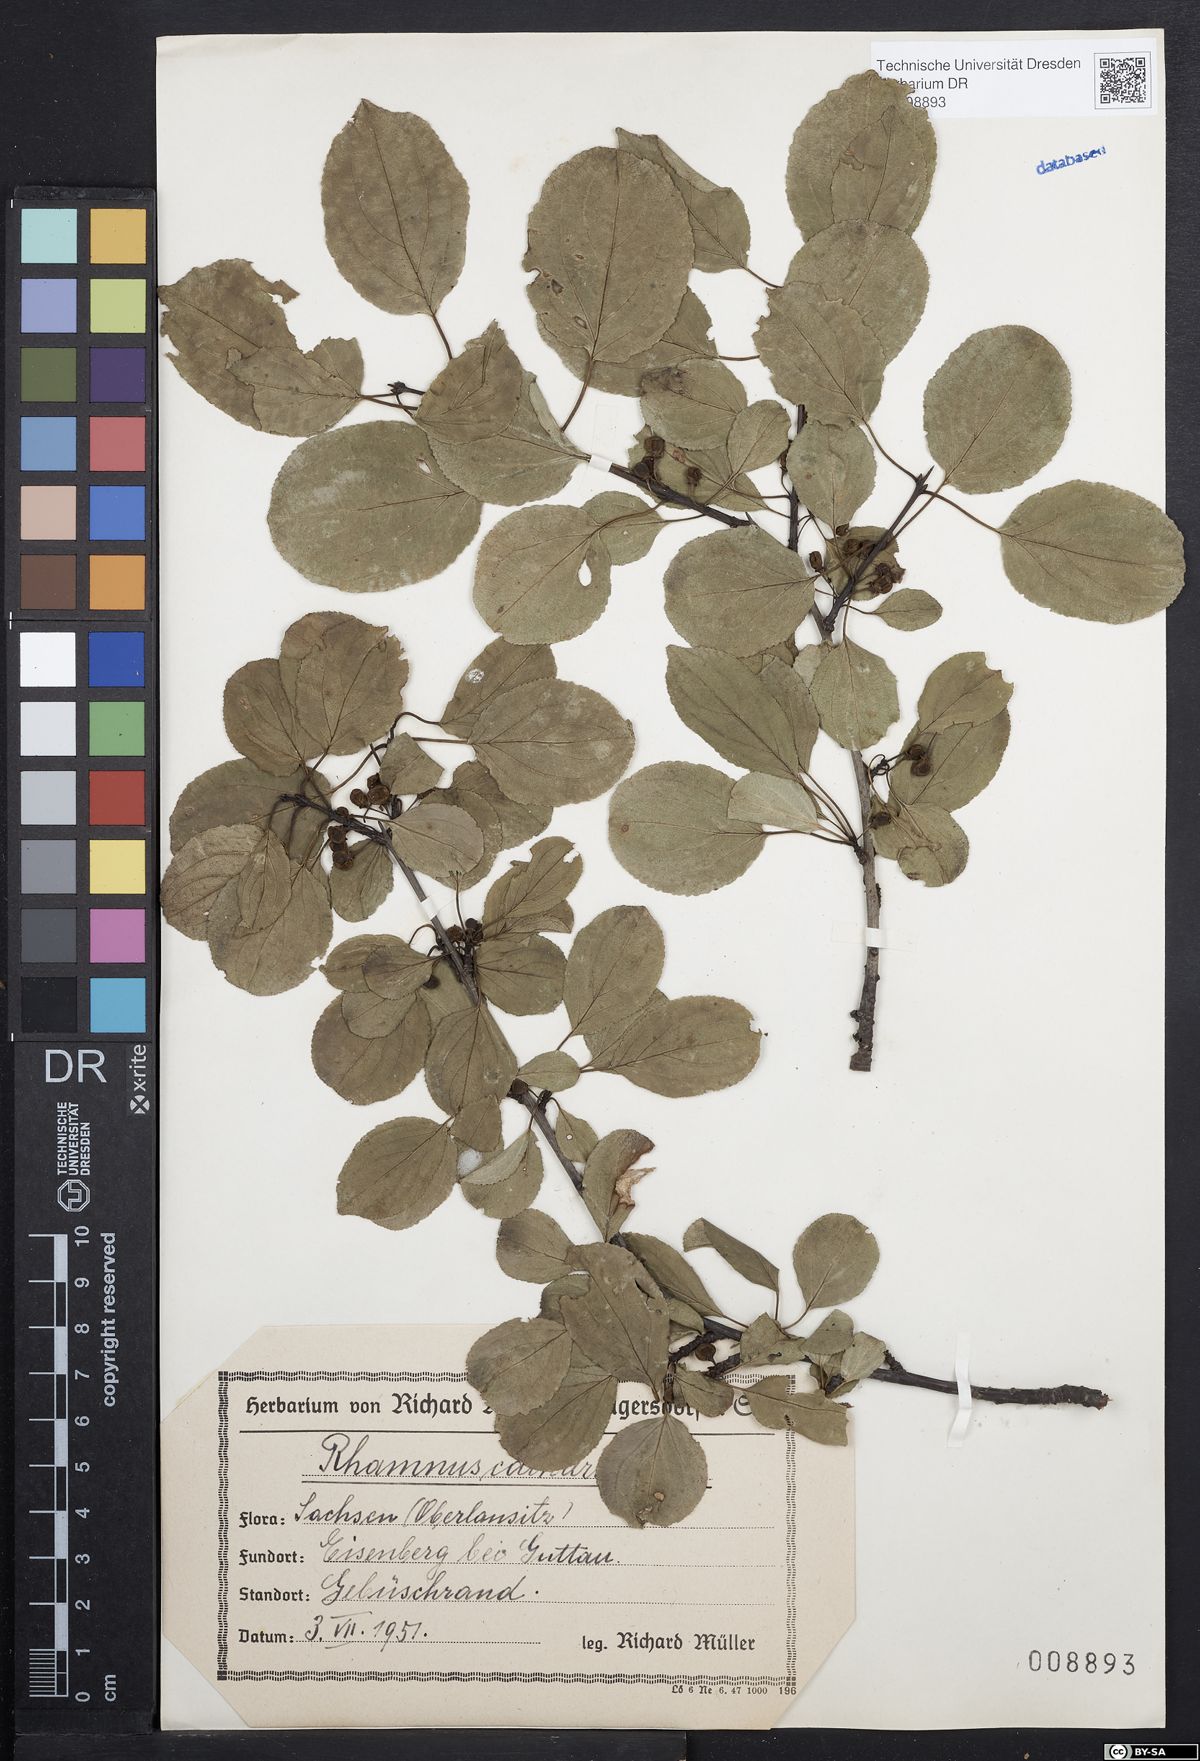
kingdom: Plantae
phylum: Tracheophyta
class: Magnoliopsida
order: Rosales
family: Rhamnaceae
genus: Rhamnus
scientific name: Rhamnus cathartica
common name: Common buckthorn
